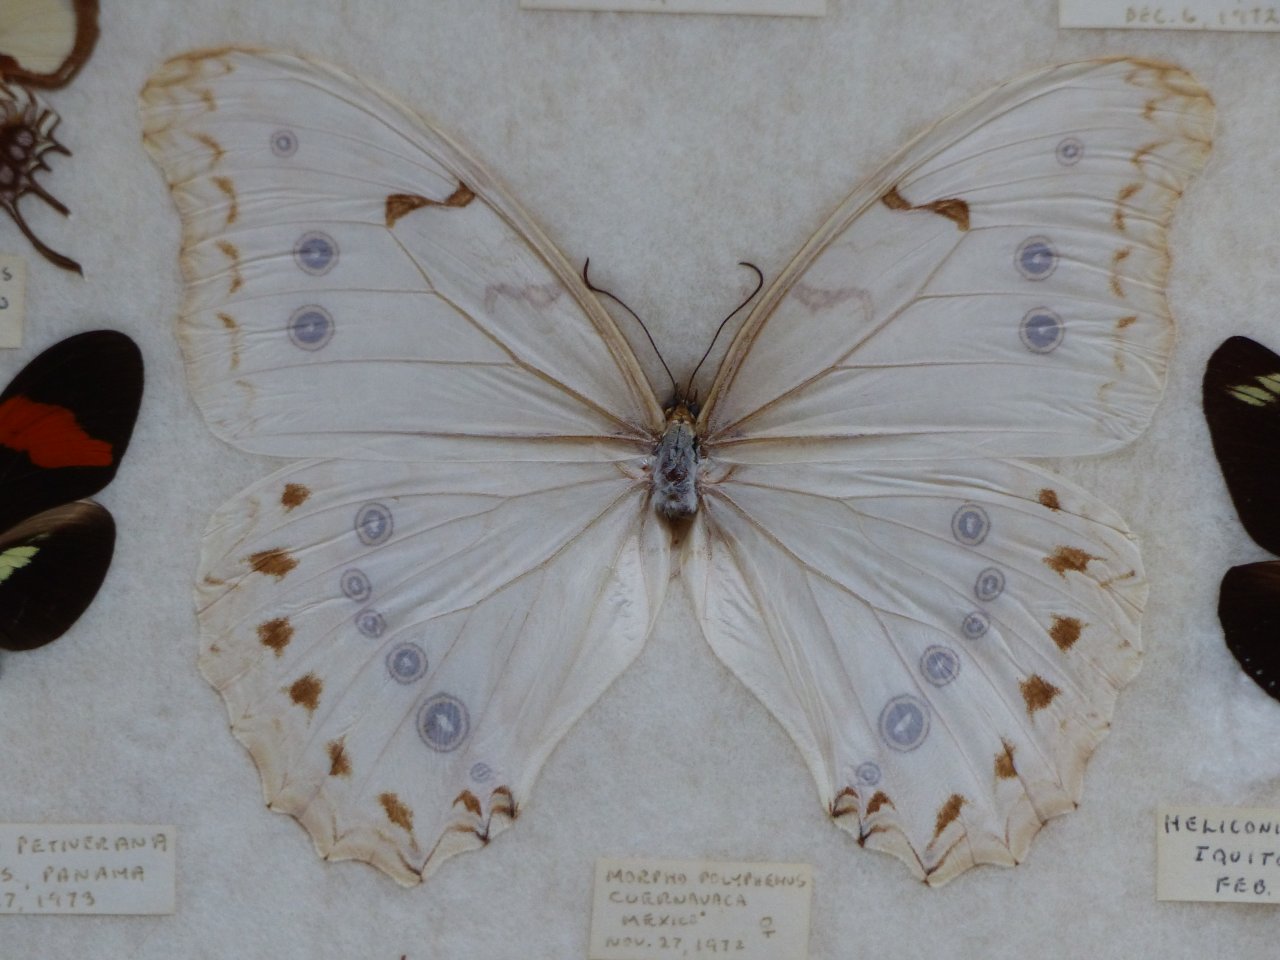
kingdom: Animalia
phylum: Arthropoda
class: Insecta
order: Lepidoptera
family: Nymphalidae
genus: Morpho
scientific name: Morpho polyphemus
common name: White Morpho
